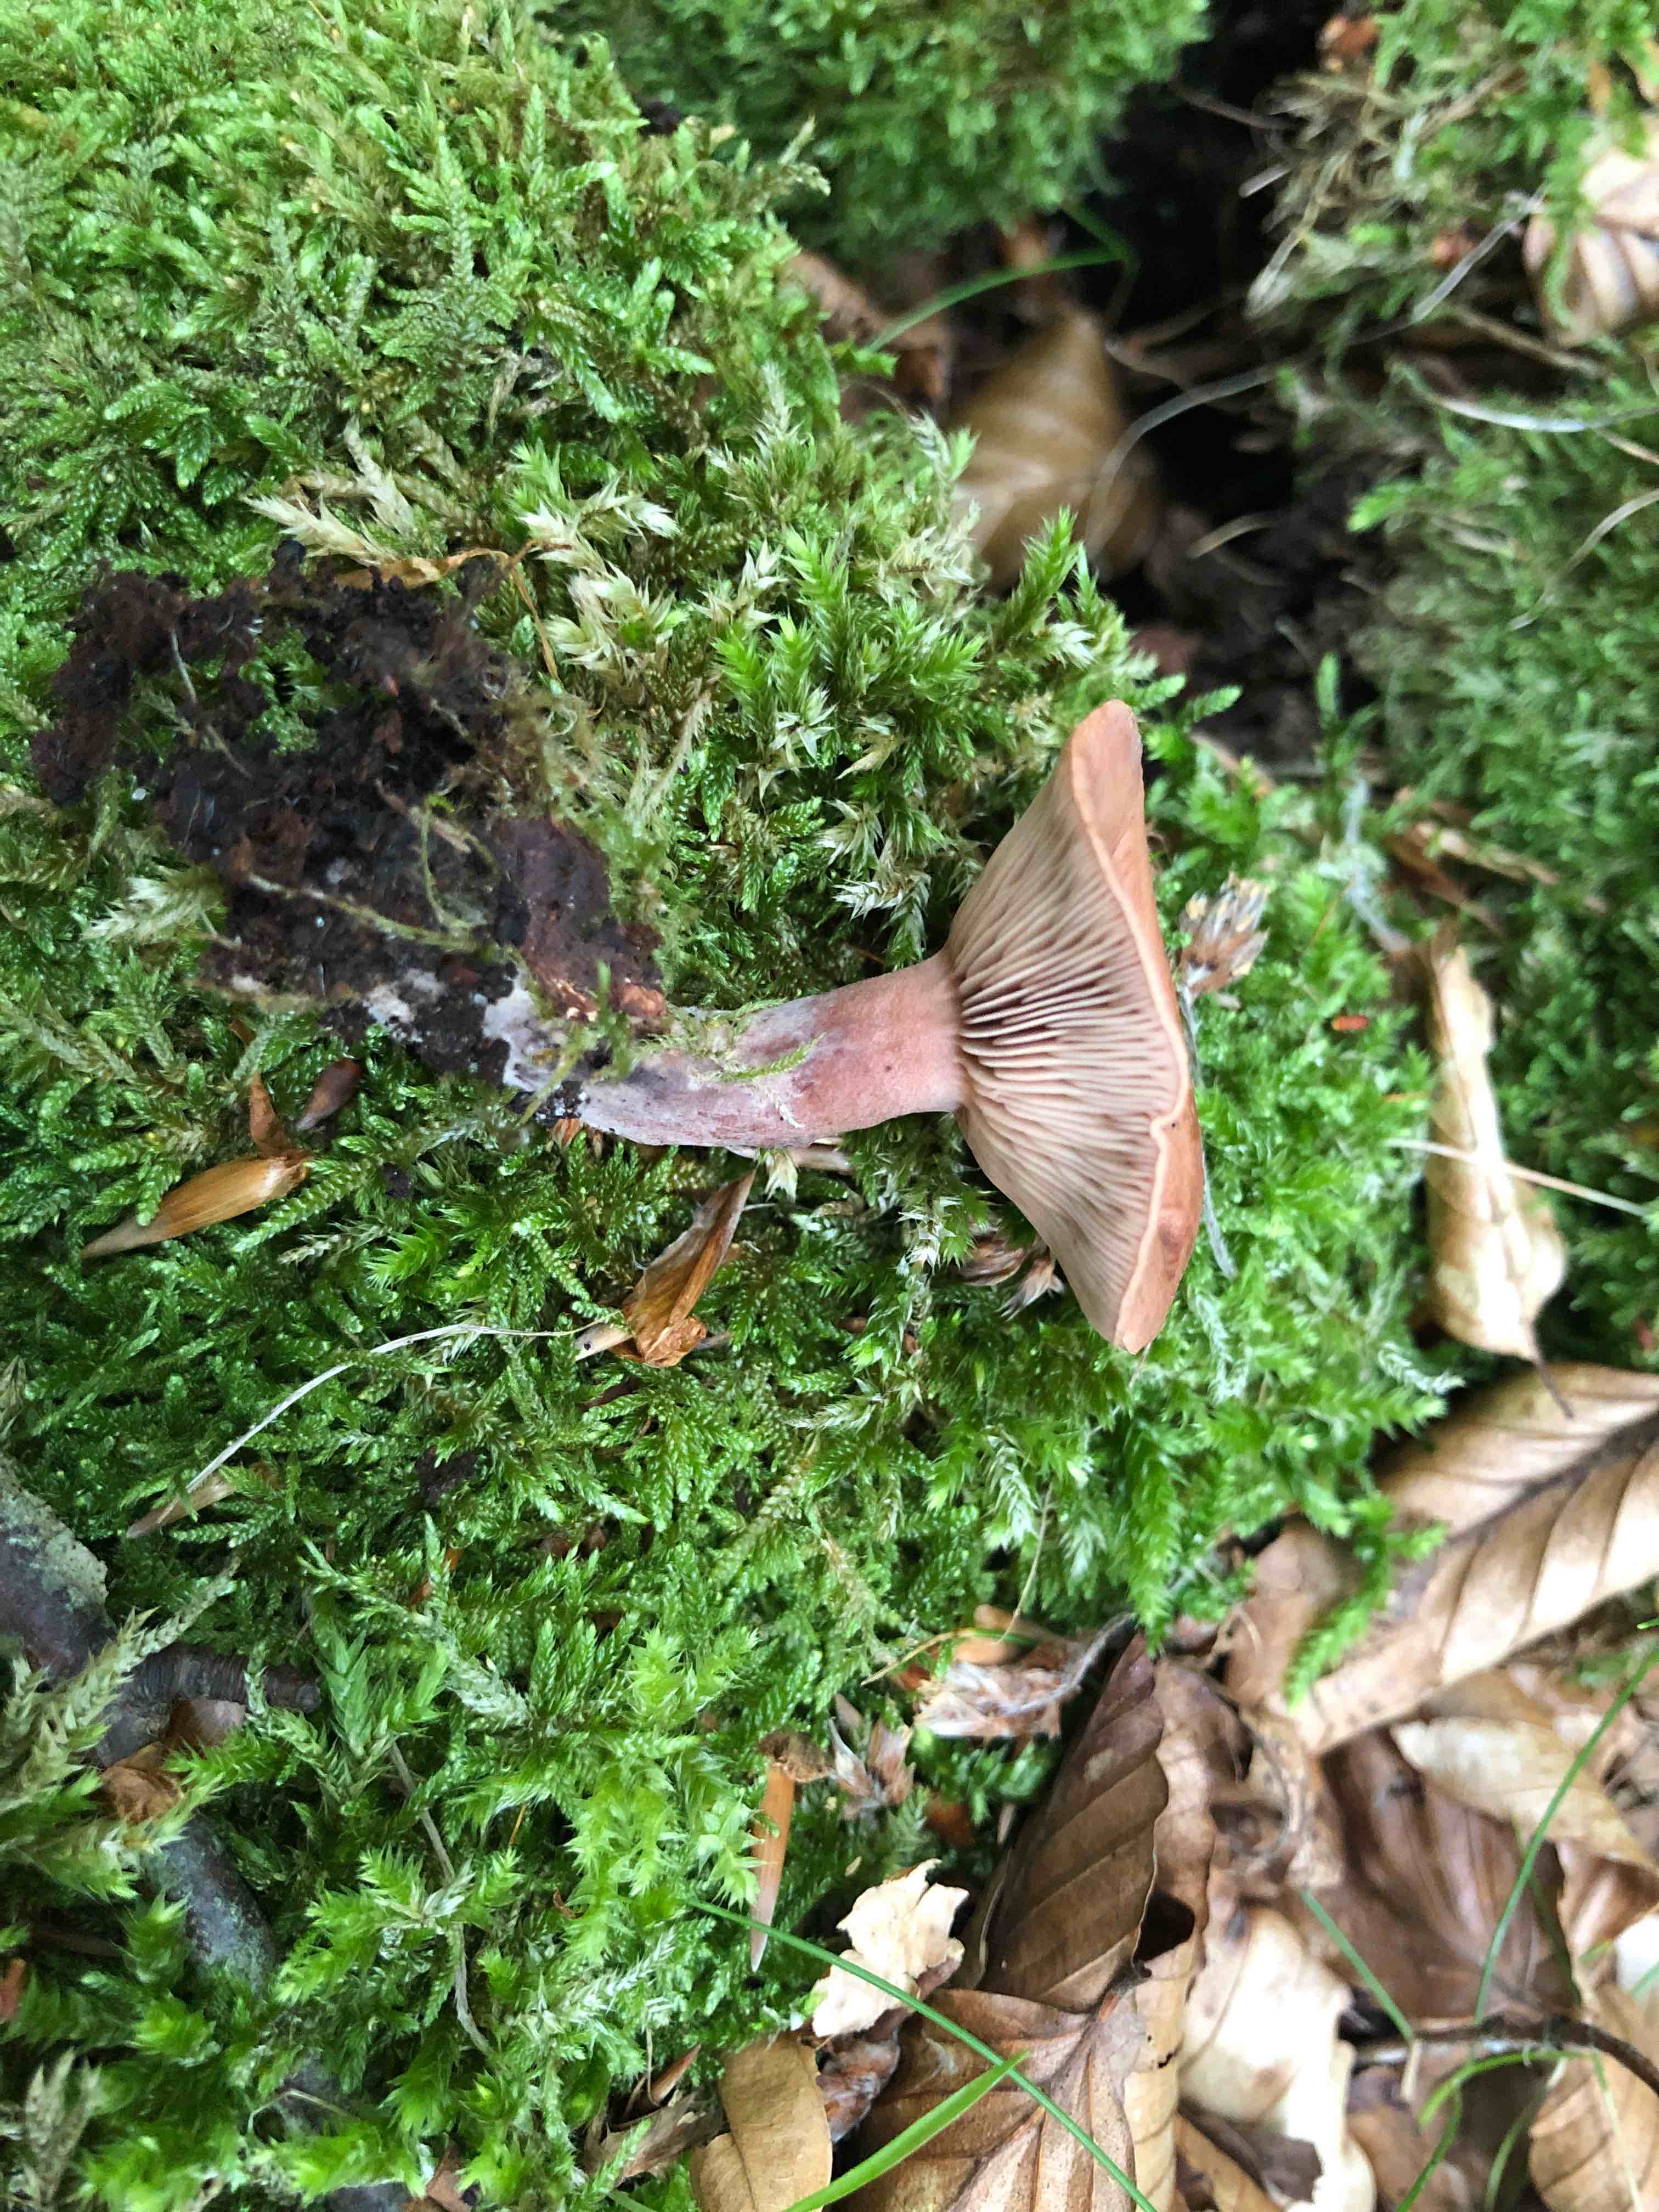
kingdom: Fungi
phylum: Basidiomycota
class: Agaricomycetes
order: Russulales
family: Russulaceae
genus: Lactarius
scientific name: Lactarius camphoratus
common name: kamfer-mælkehat
